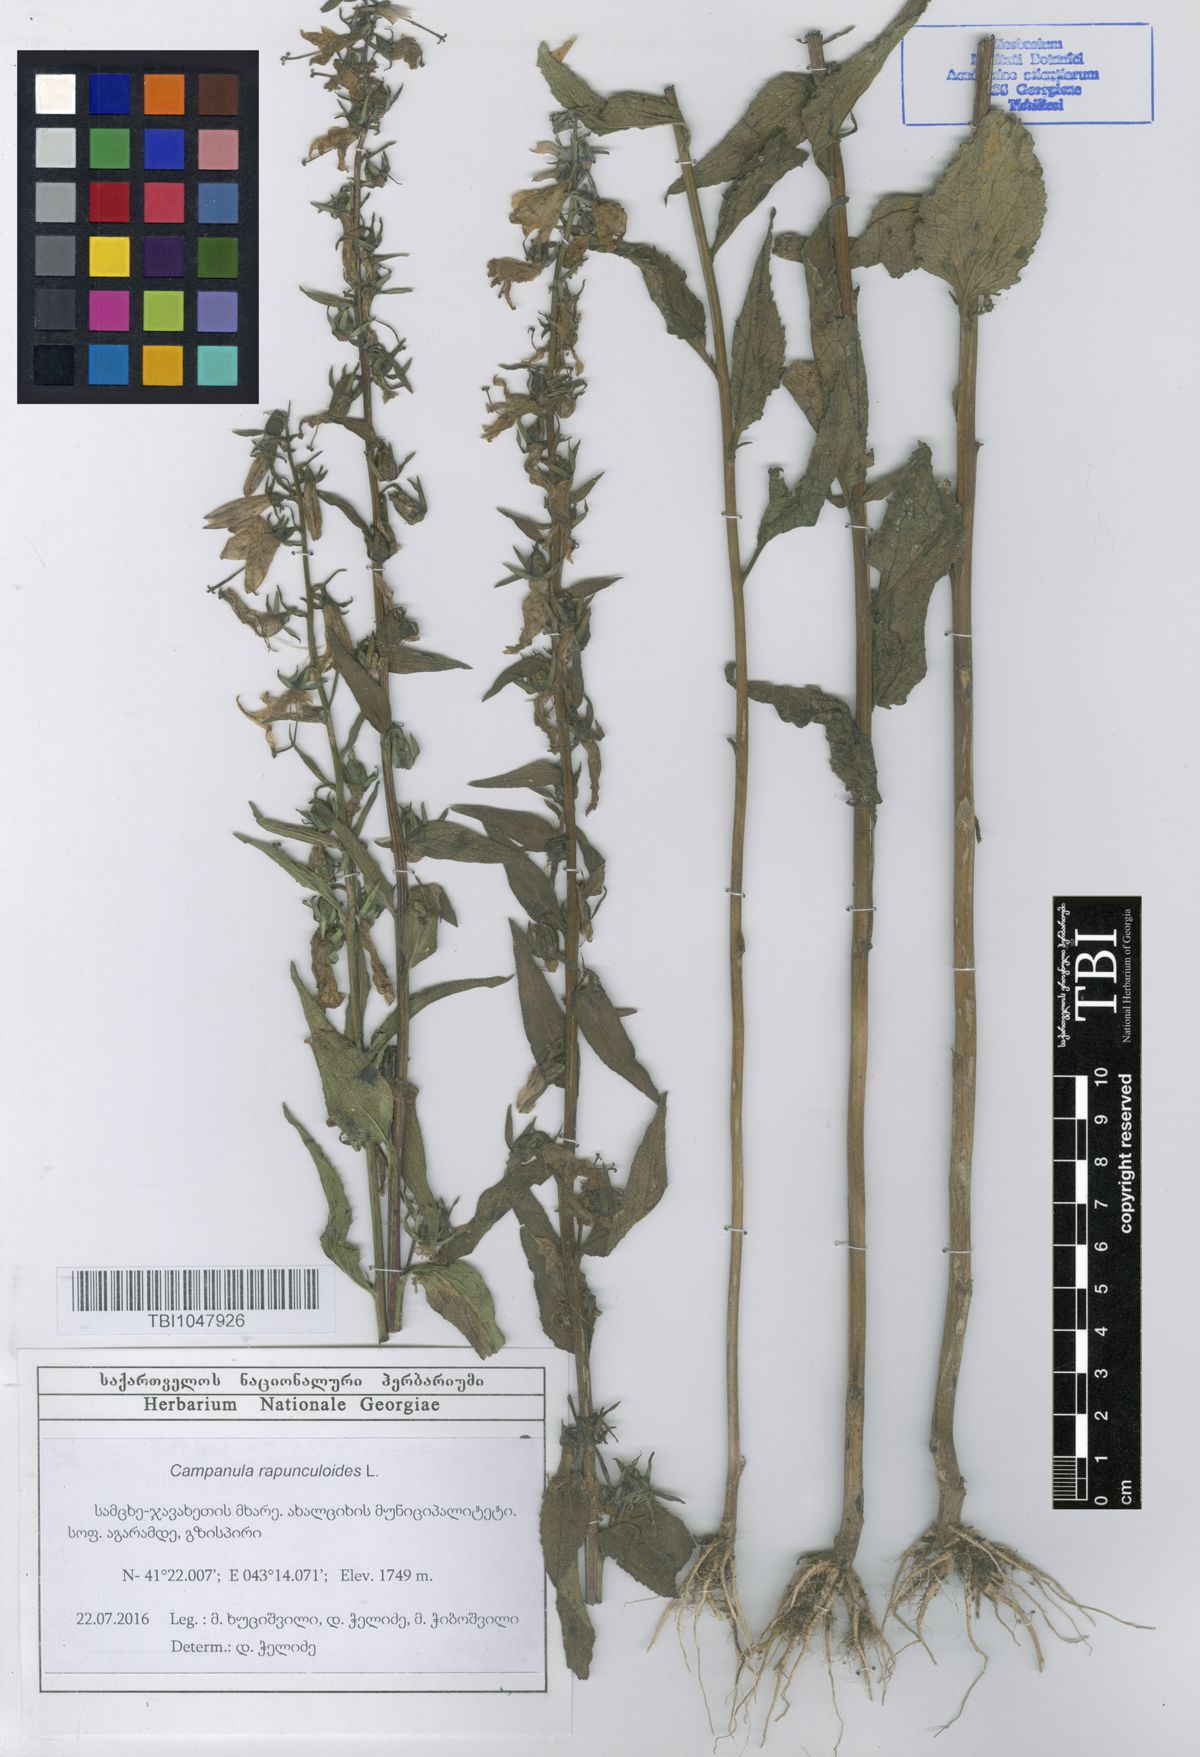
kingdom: Plantae
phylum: Tracheophyta
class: Magnoliopsida
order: Asterales
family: Campanulaceae
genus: Campanula
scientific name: Campanula rapunculoides
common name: Creeping bellflower
